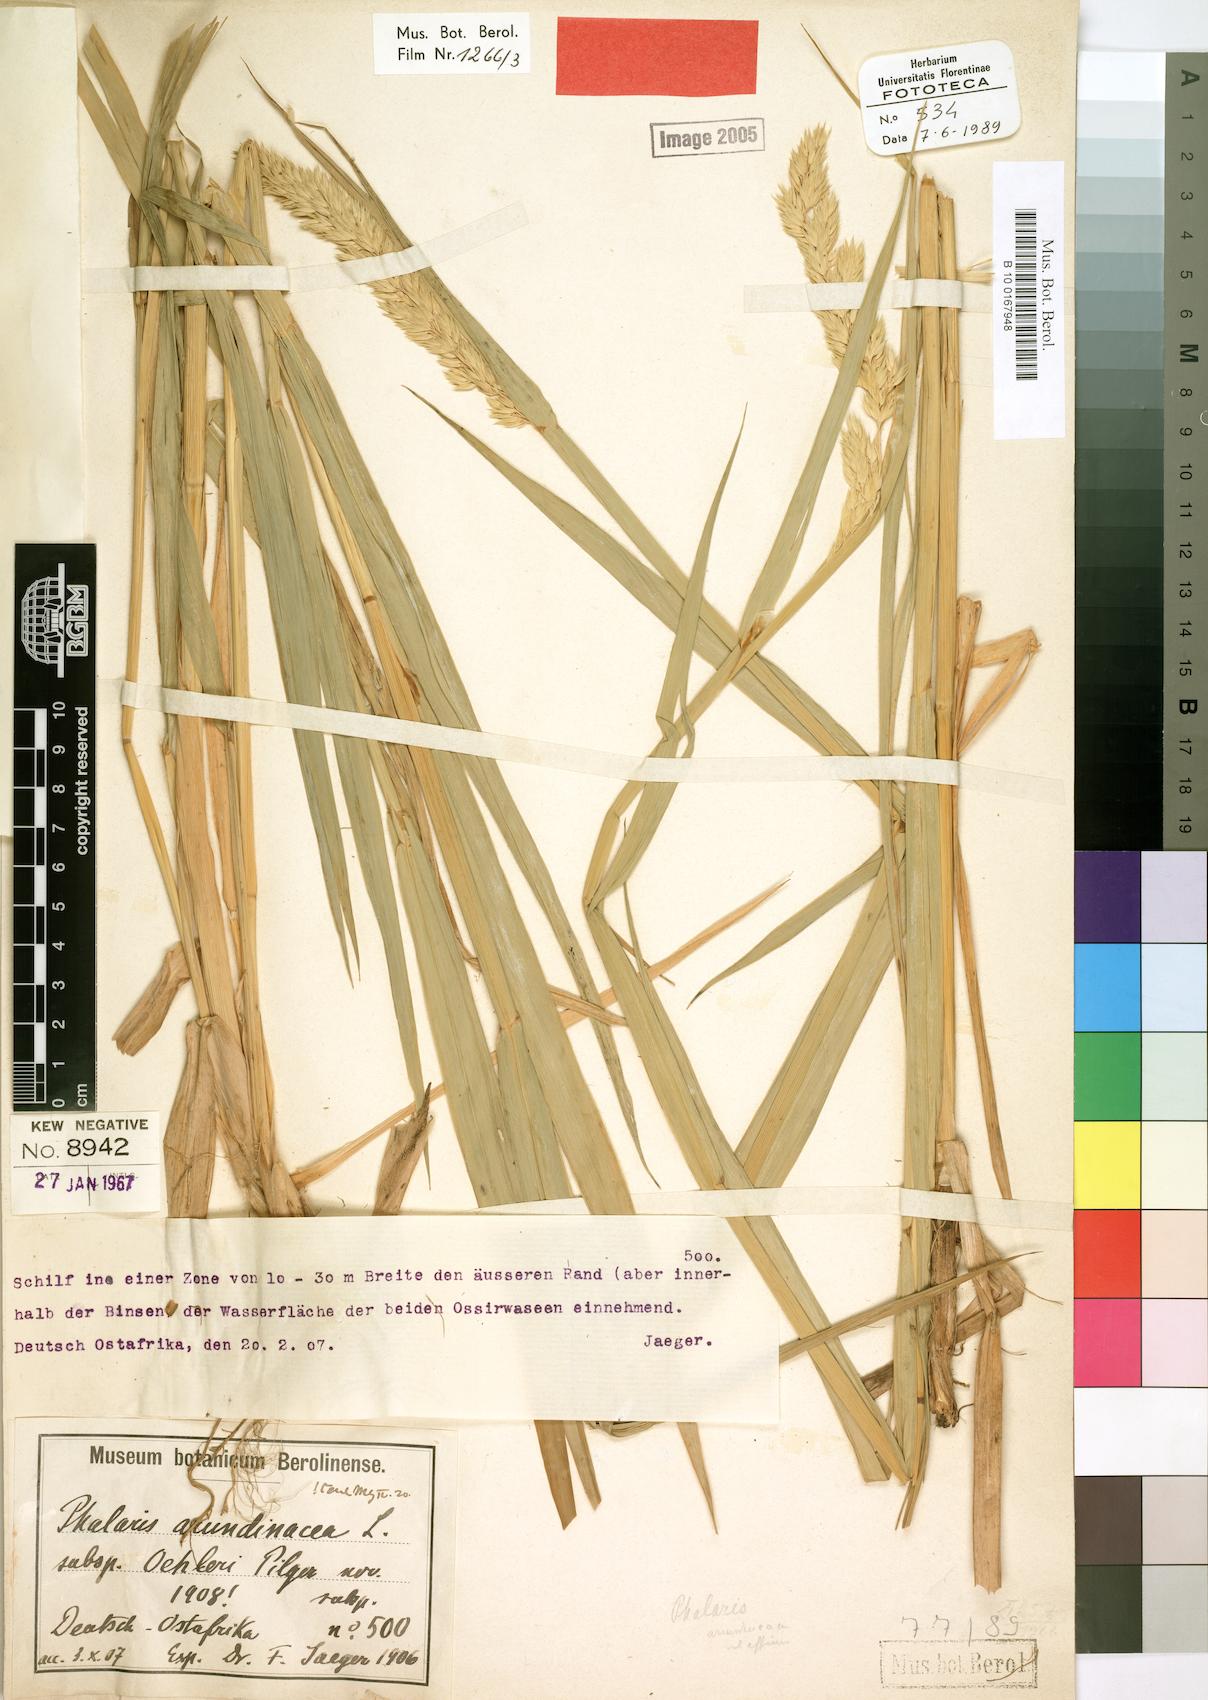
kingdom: Plantae
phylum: Tracheophyta
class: Liliopsida
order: Poales
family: Poaceae
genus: Phalaris
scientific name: Phalaris arundinacea
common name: Reed canary-grass
